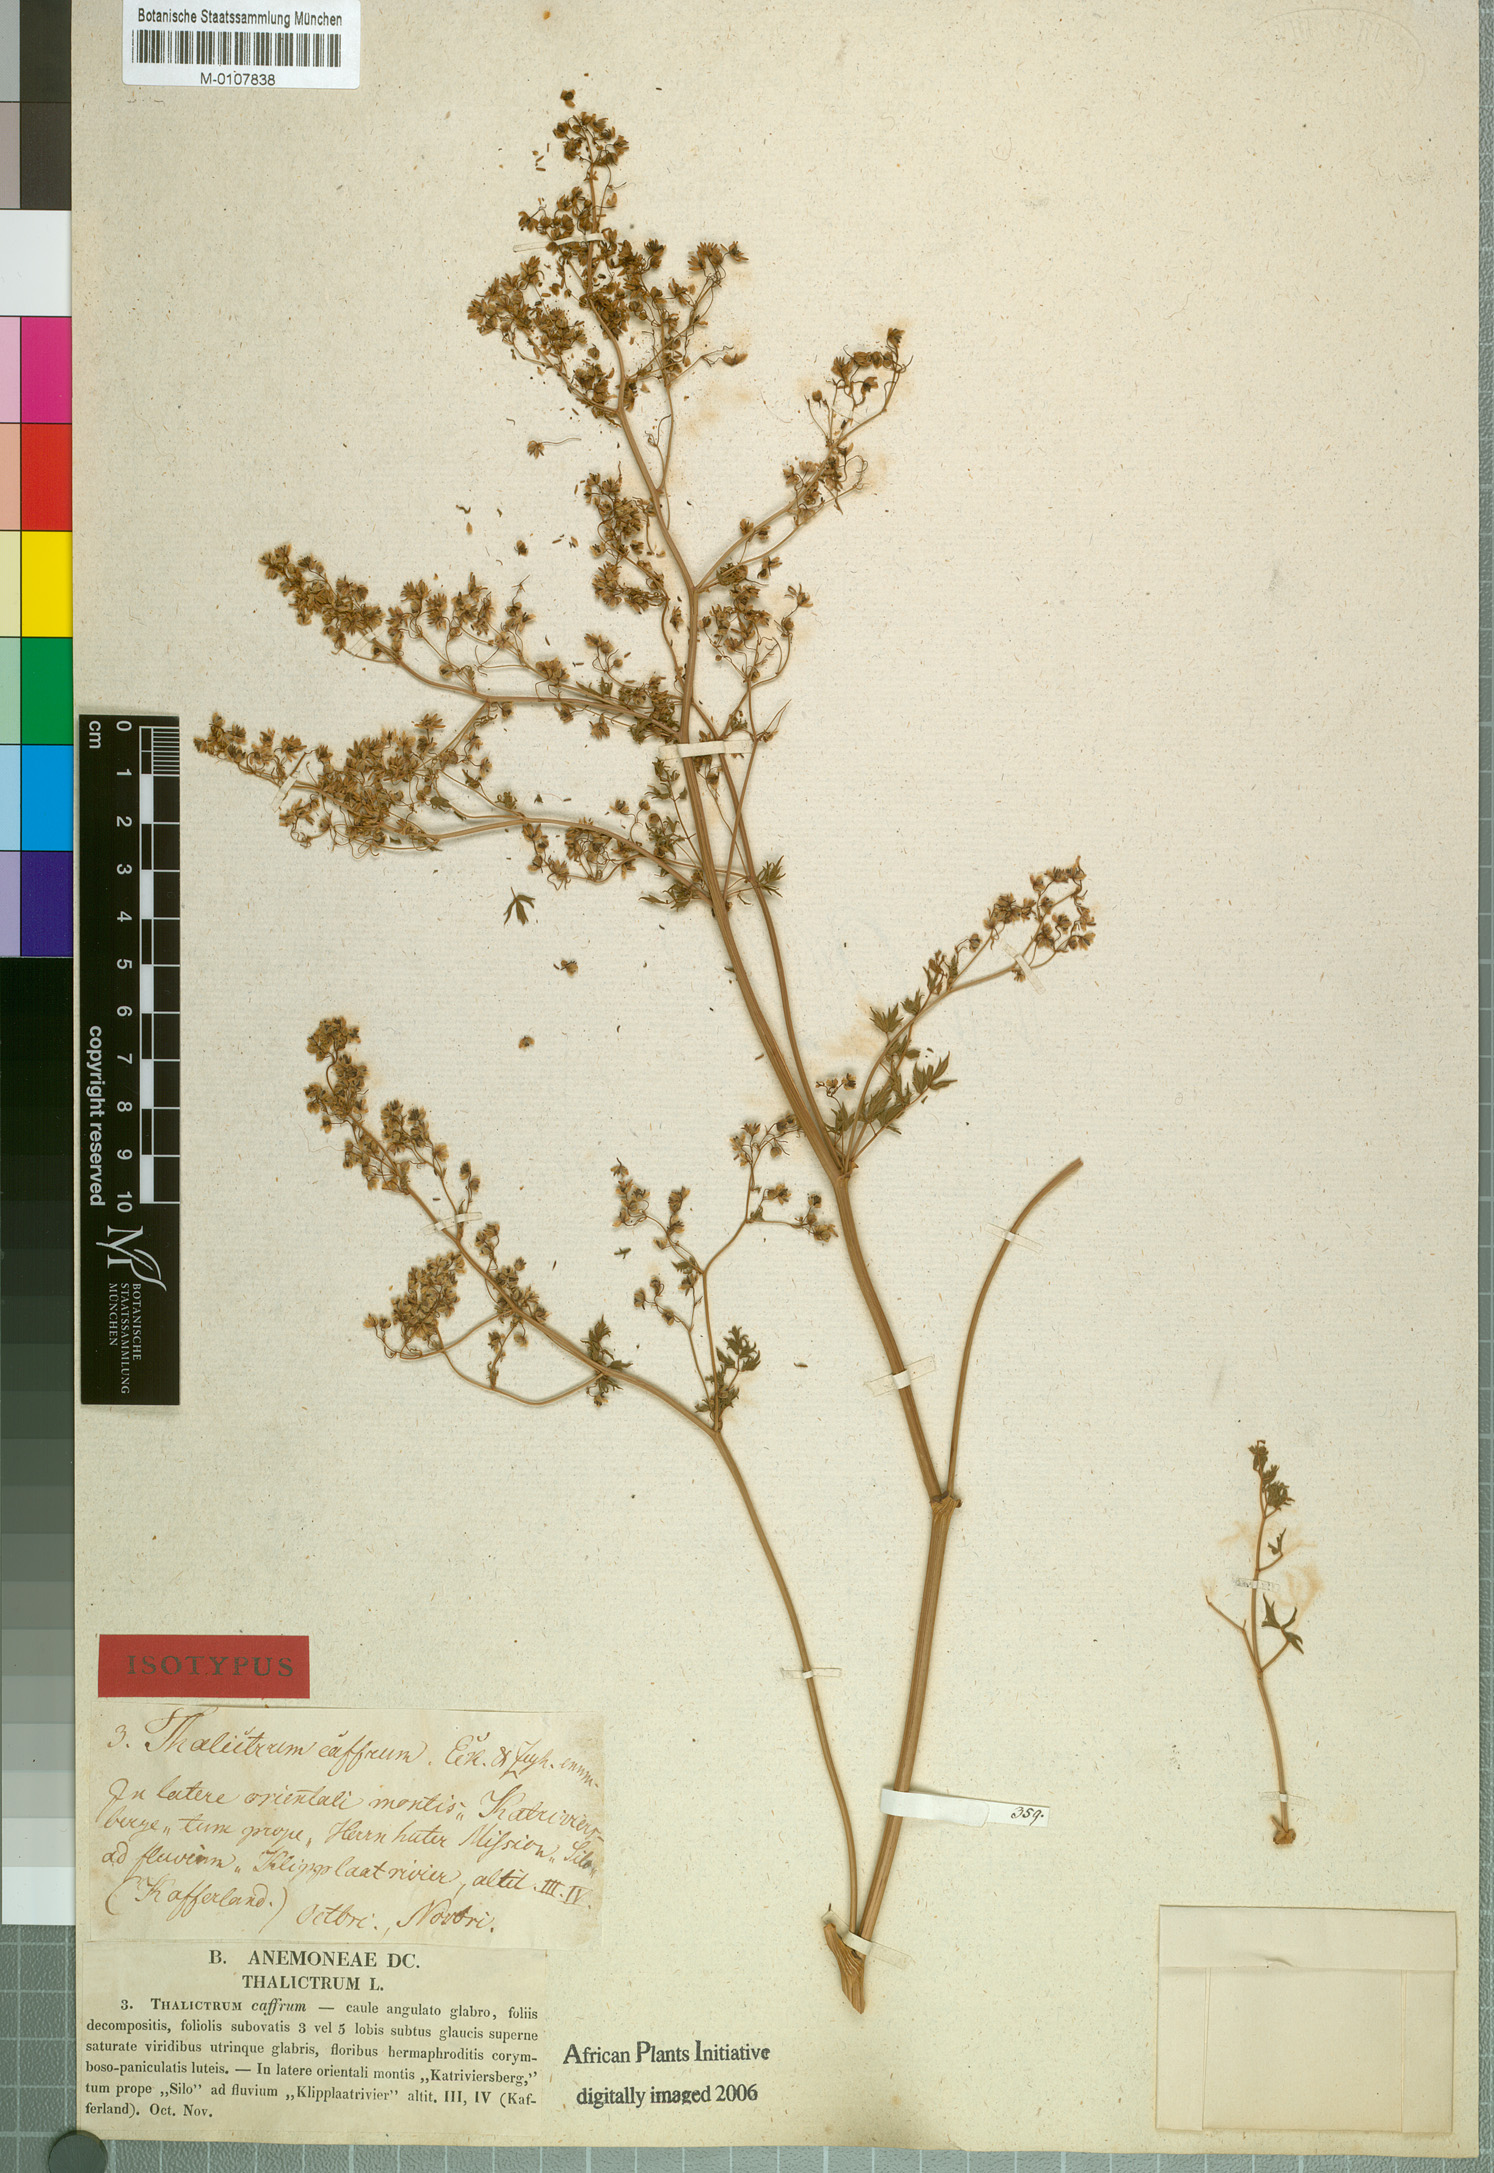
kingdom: Plantae
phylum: Tracheophyta
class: Magnoliopsida
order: Ranunculales
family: Ranunculaceae
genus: Thalictrum
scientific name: Thalictrum minus
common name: Lesser meadow-rue
